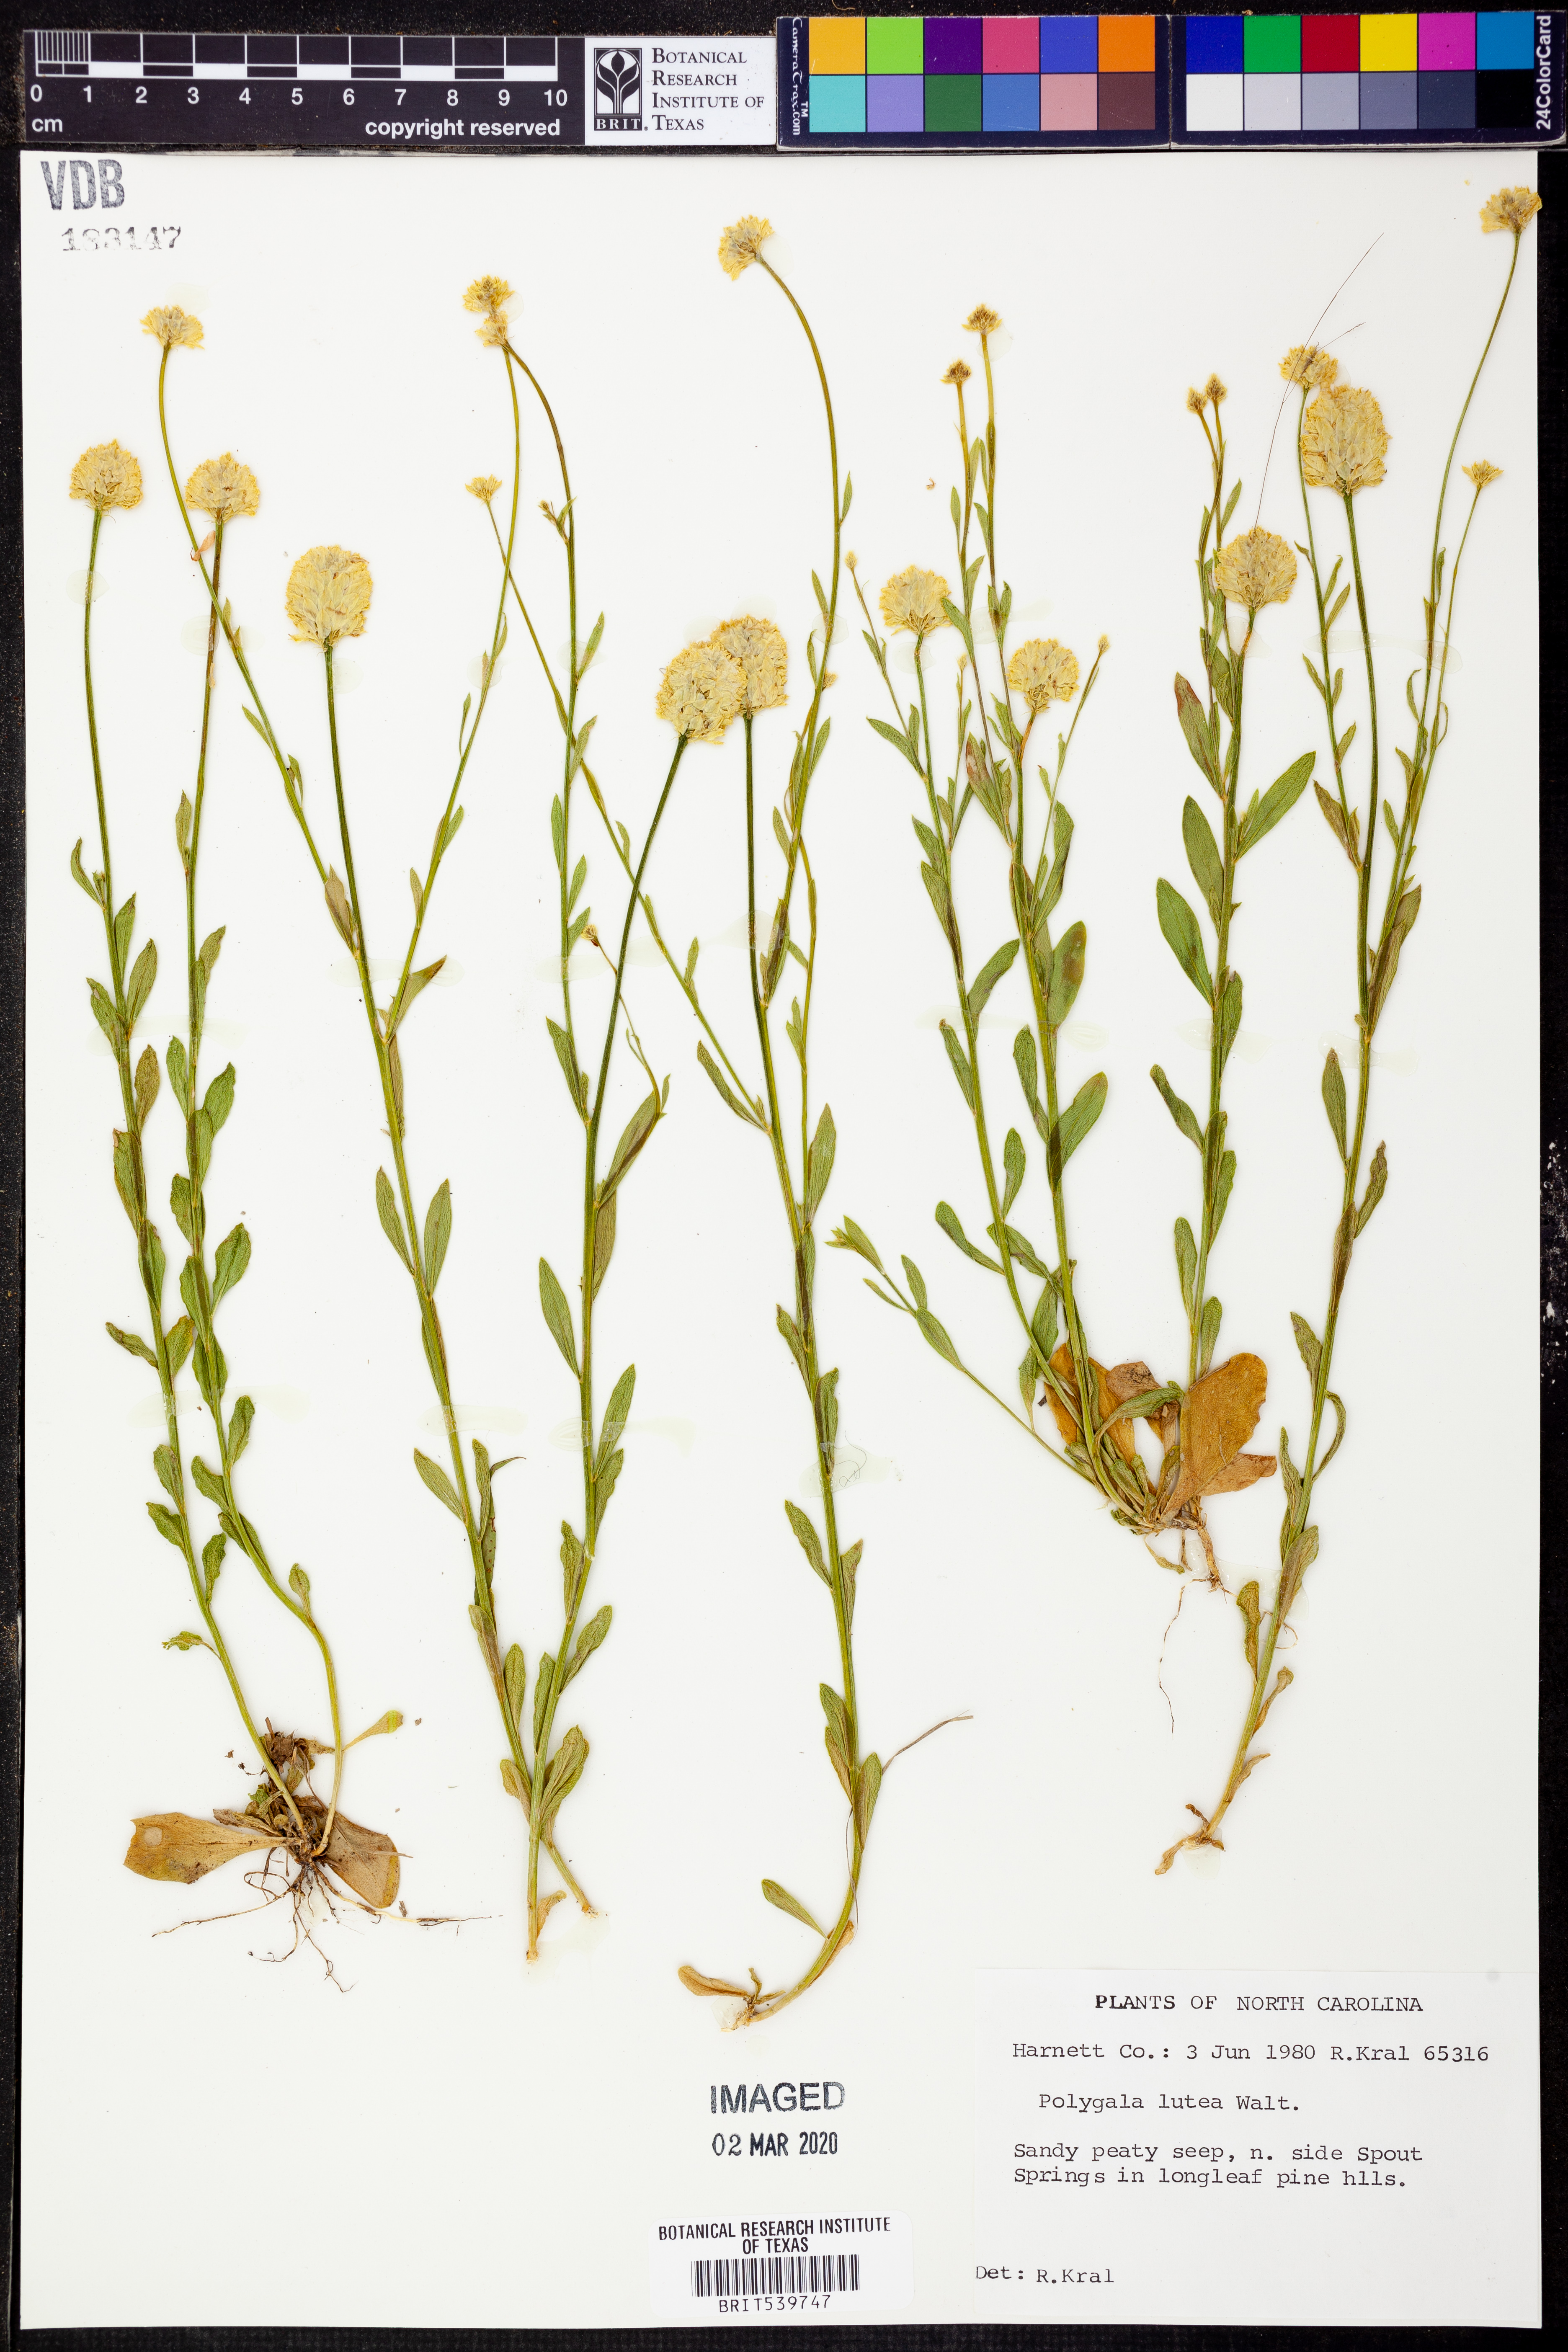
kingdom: Plantae
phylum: Tracheophyta
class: Magnoliopsida
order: Fabales
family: Polygalaceae
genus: Polygala
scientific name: Polygala lutea
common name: Orange milkwort
